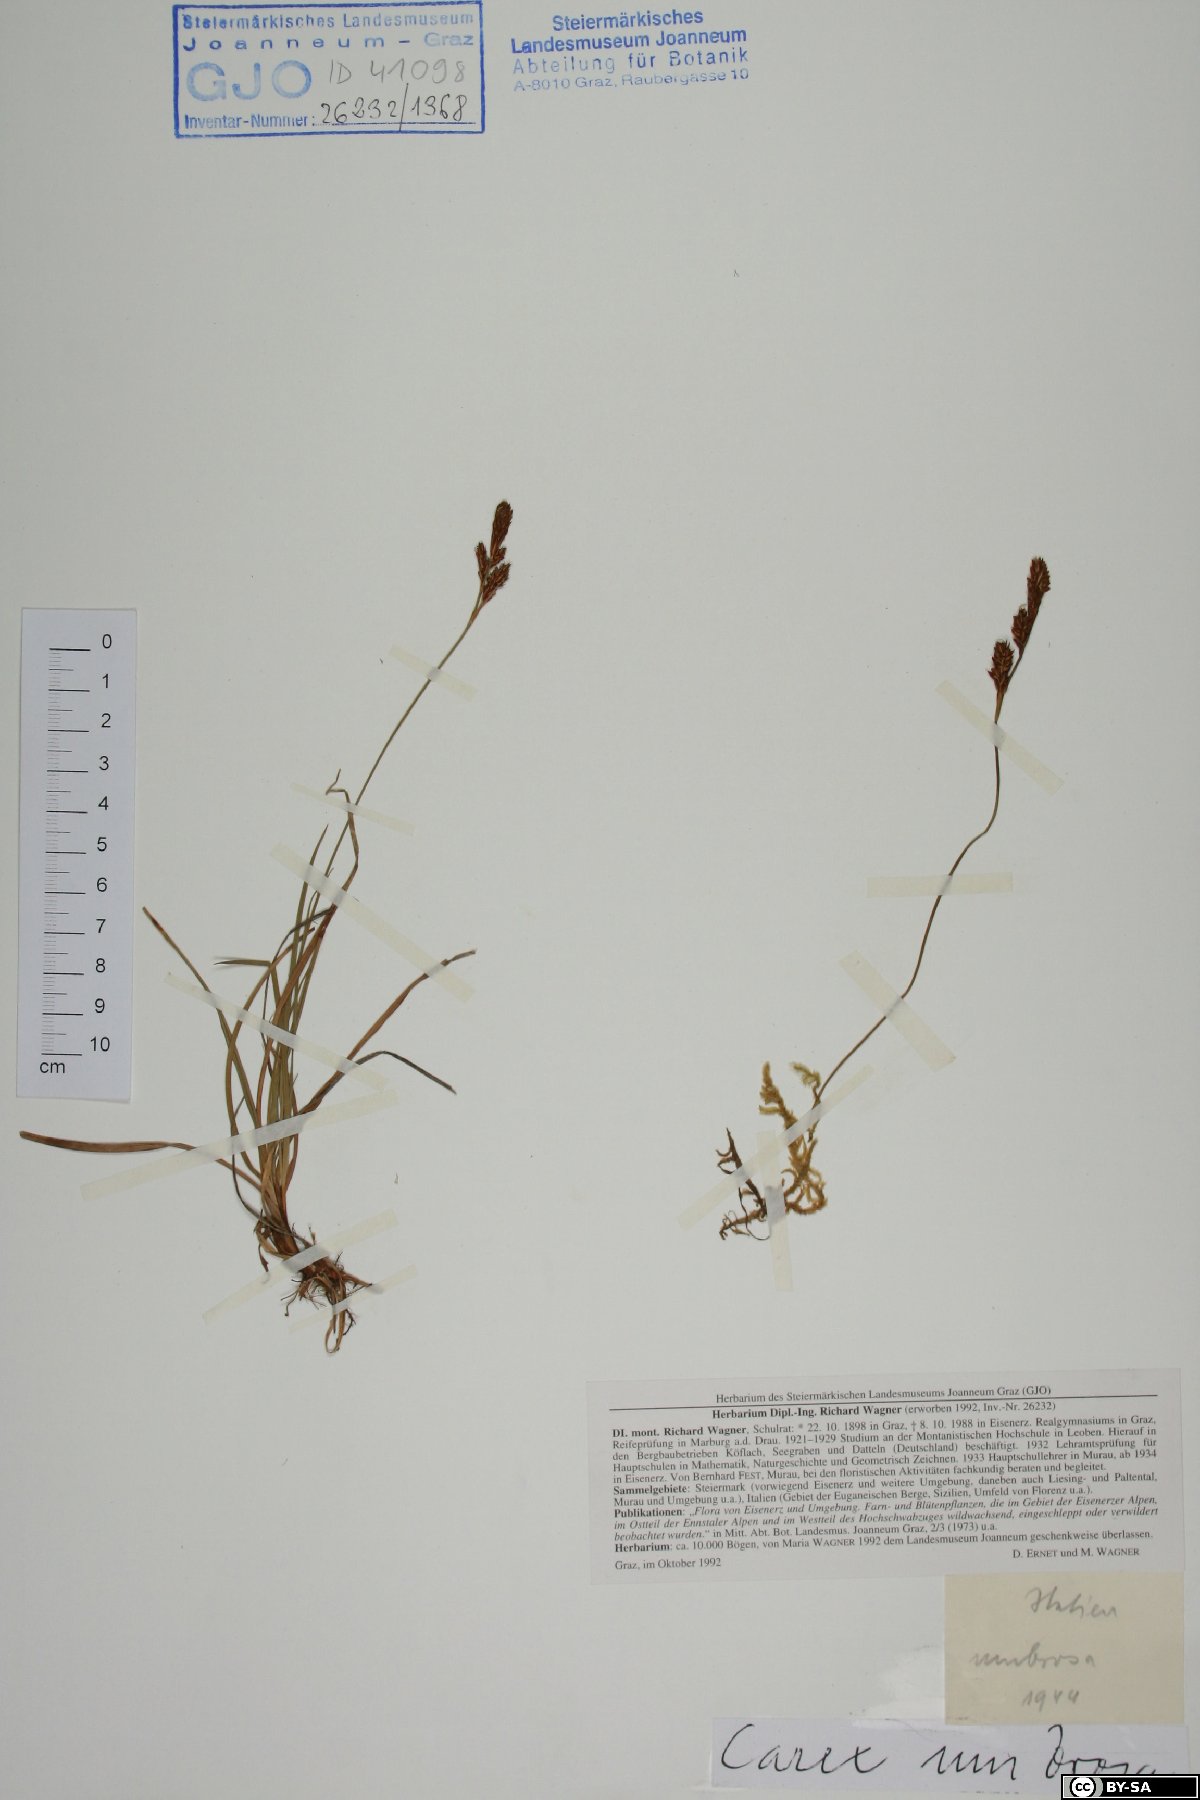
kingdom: Plantae
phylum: Tracheophyta
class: Liliopsida
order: Poales
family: Cyperaceae
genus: Carex
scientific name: Carex umbrosa
